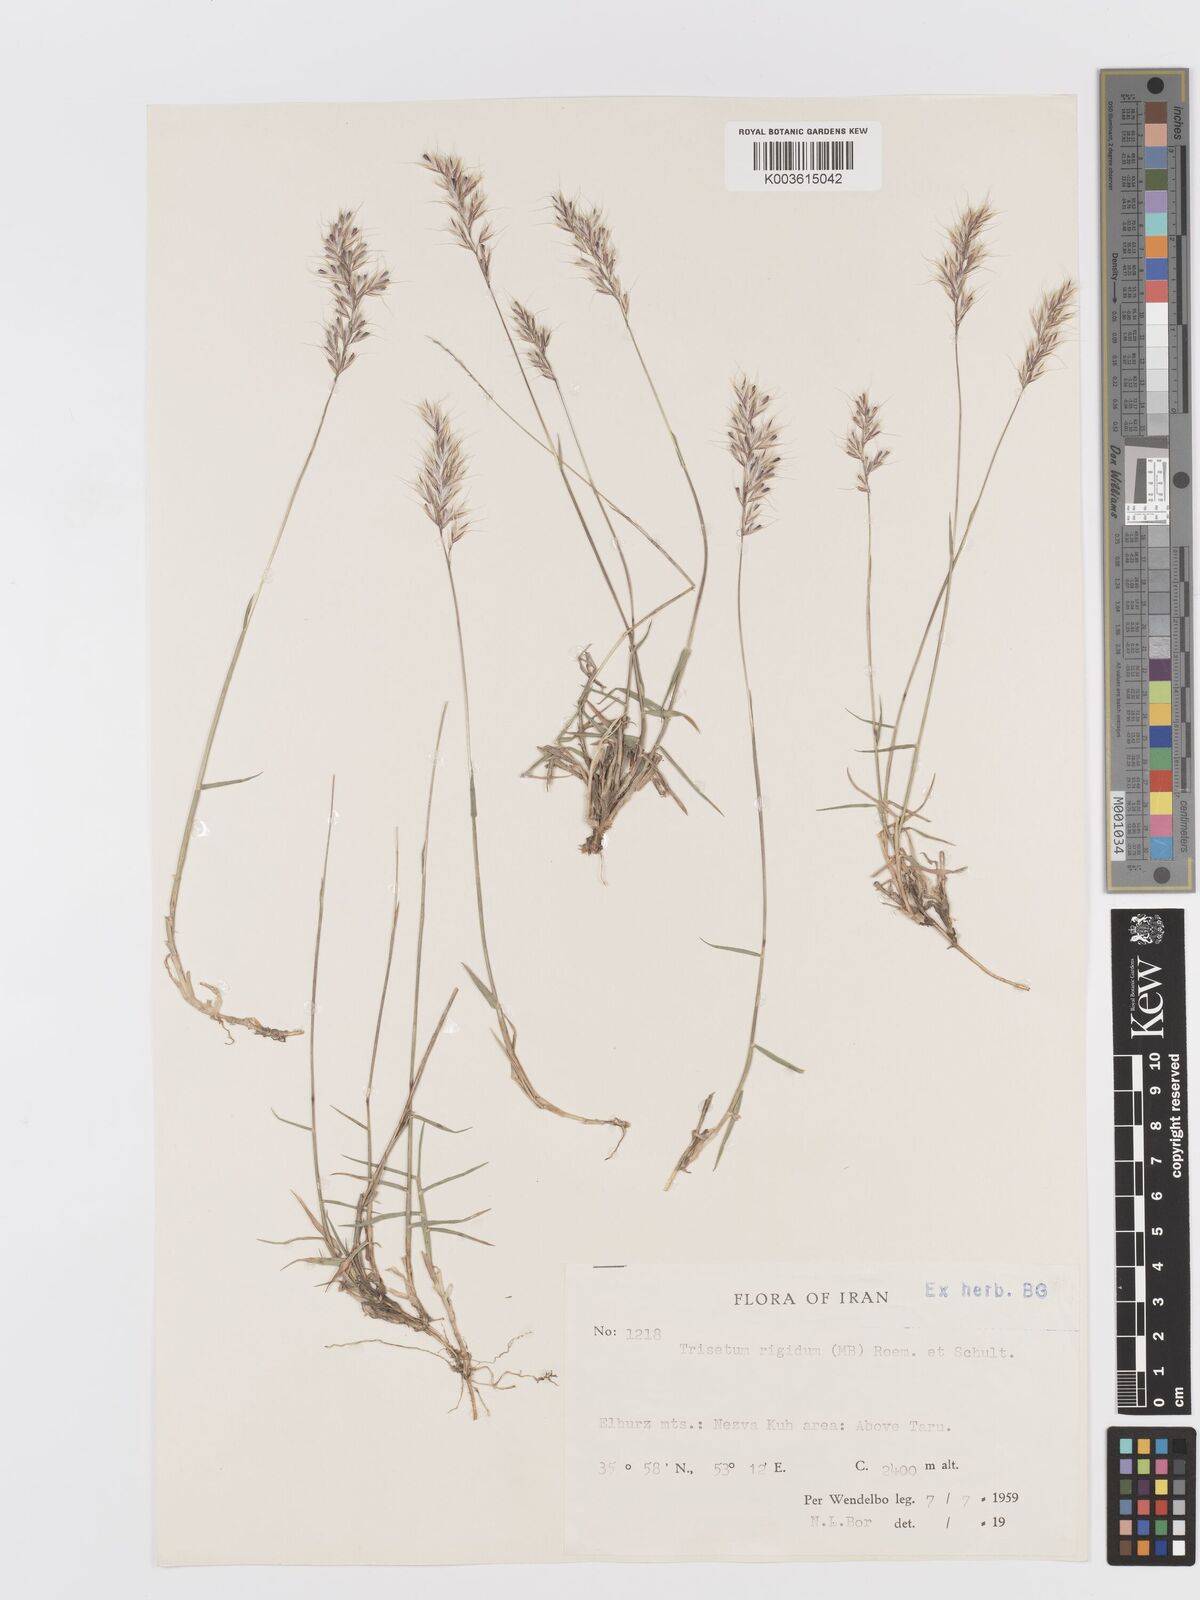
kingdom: Plantae
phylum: Tracheophyta
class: Liliopsida
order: Poales
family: Poaceae
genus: Trisetum
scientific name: Trisetum rigidum
